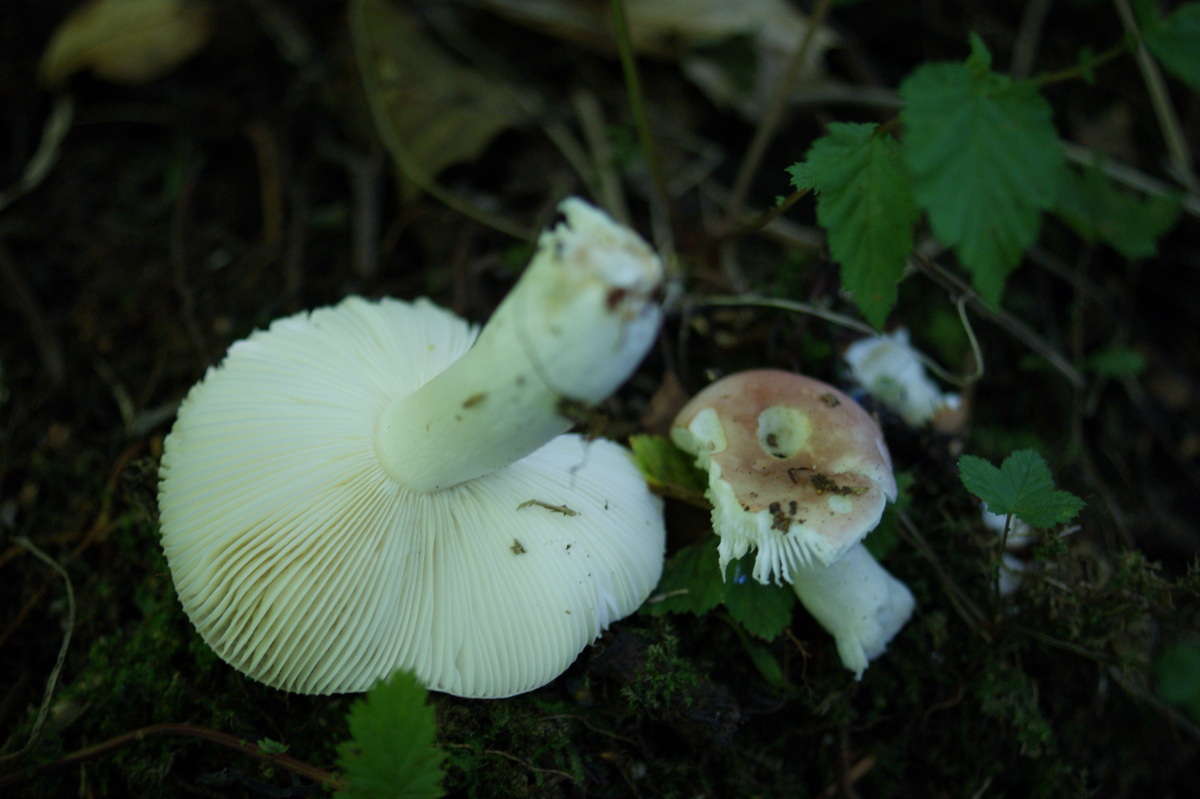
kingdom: Fungi
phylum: Basidiomycota
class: Agaricomycetes
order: Russulales
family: Russulaceae
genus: Russula
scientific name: Russula betularum
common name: bleg gift-skørhat
